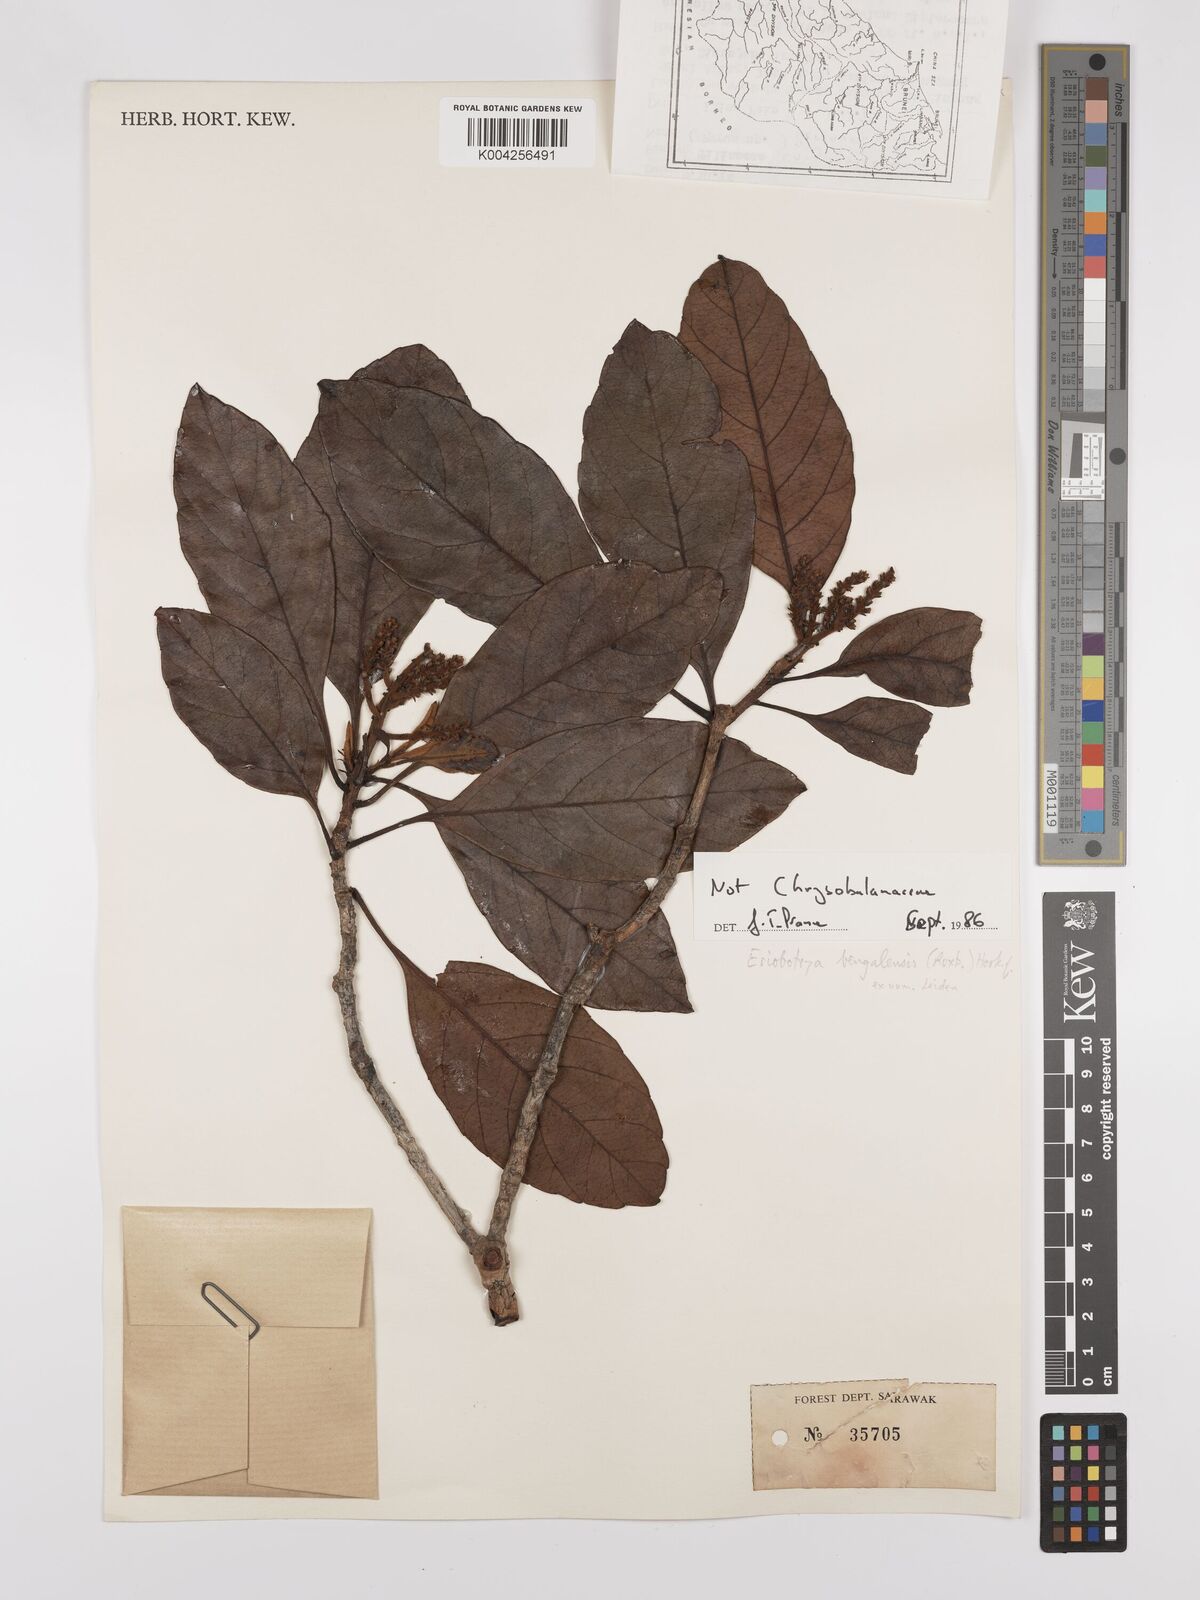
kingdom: Plantae
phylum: Tracheophyta
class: Magnoliopsida
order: Rosales
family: Rosaceae
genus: Rhaphiolepis
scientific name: Rhaphiolepis bengalensis
